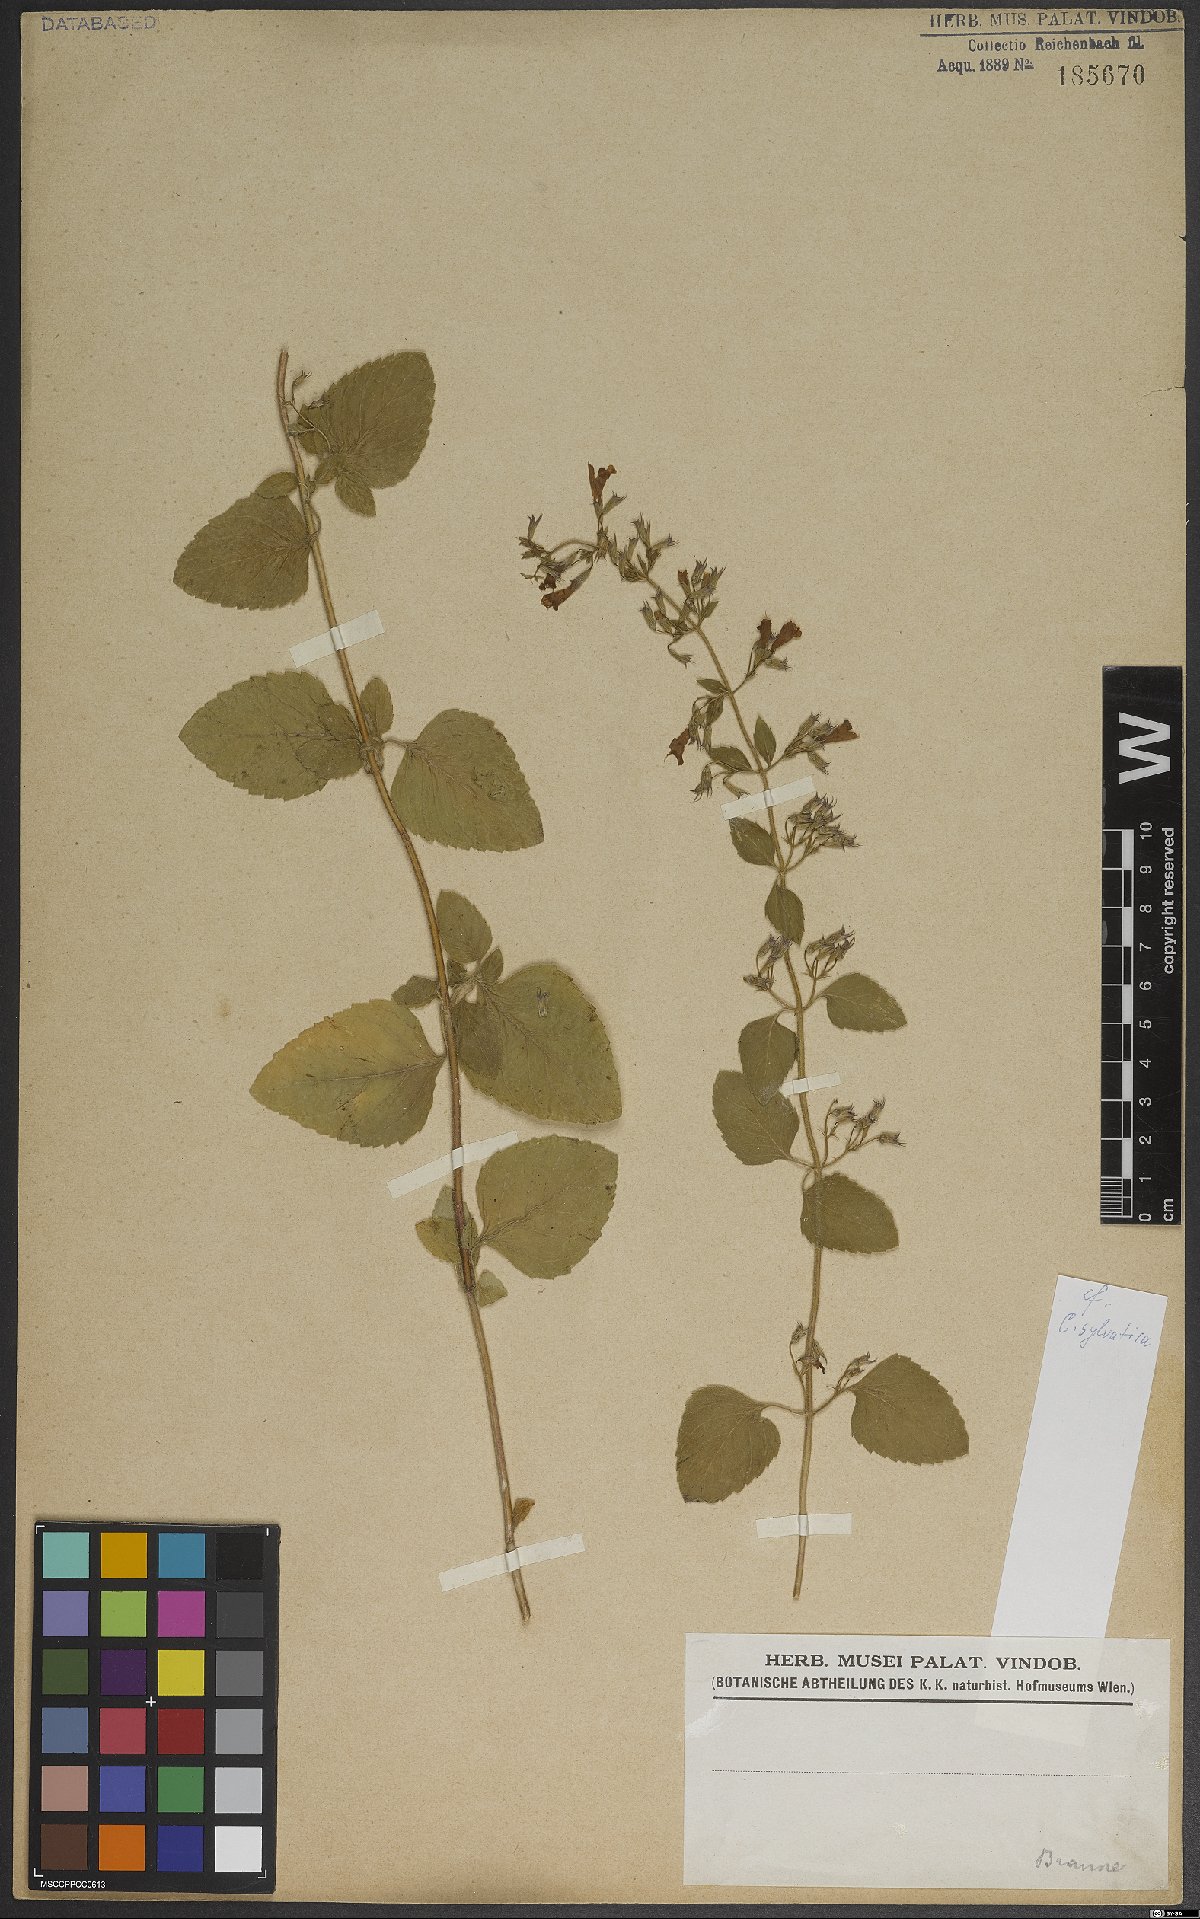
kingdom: Plantae
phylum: Tracheophyta
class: Magnoliopsida
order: Lamiales
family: Lamiaceae
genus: Clinopodium
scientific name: Clinopodium menthifolium
